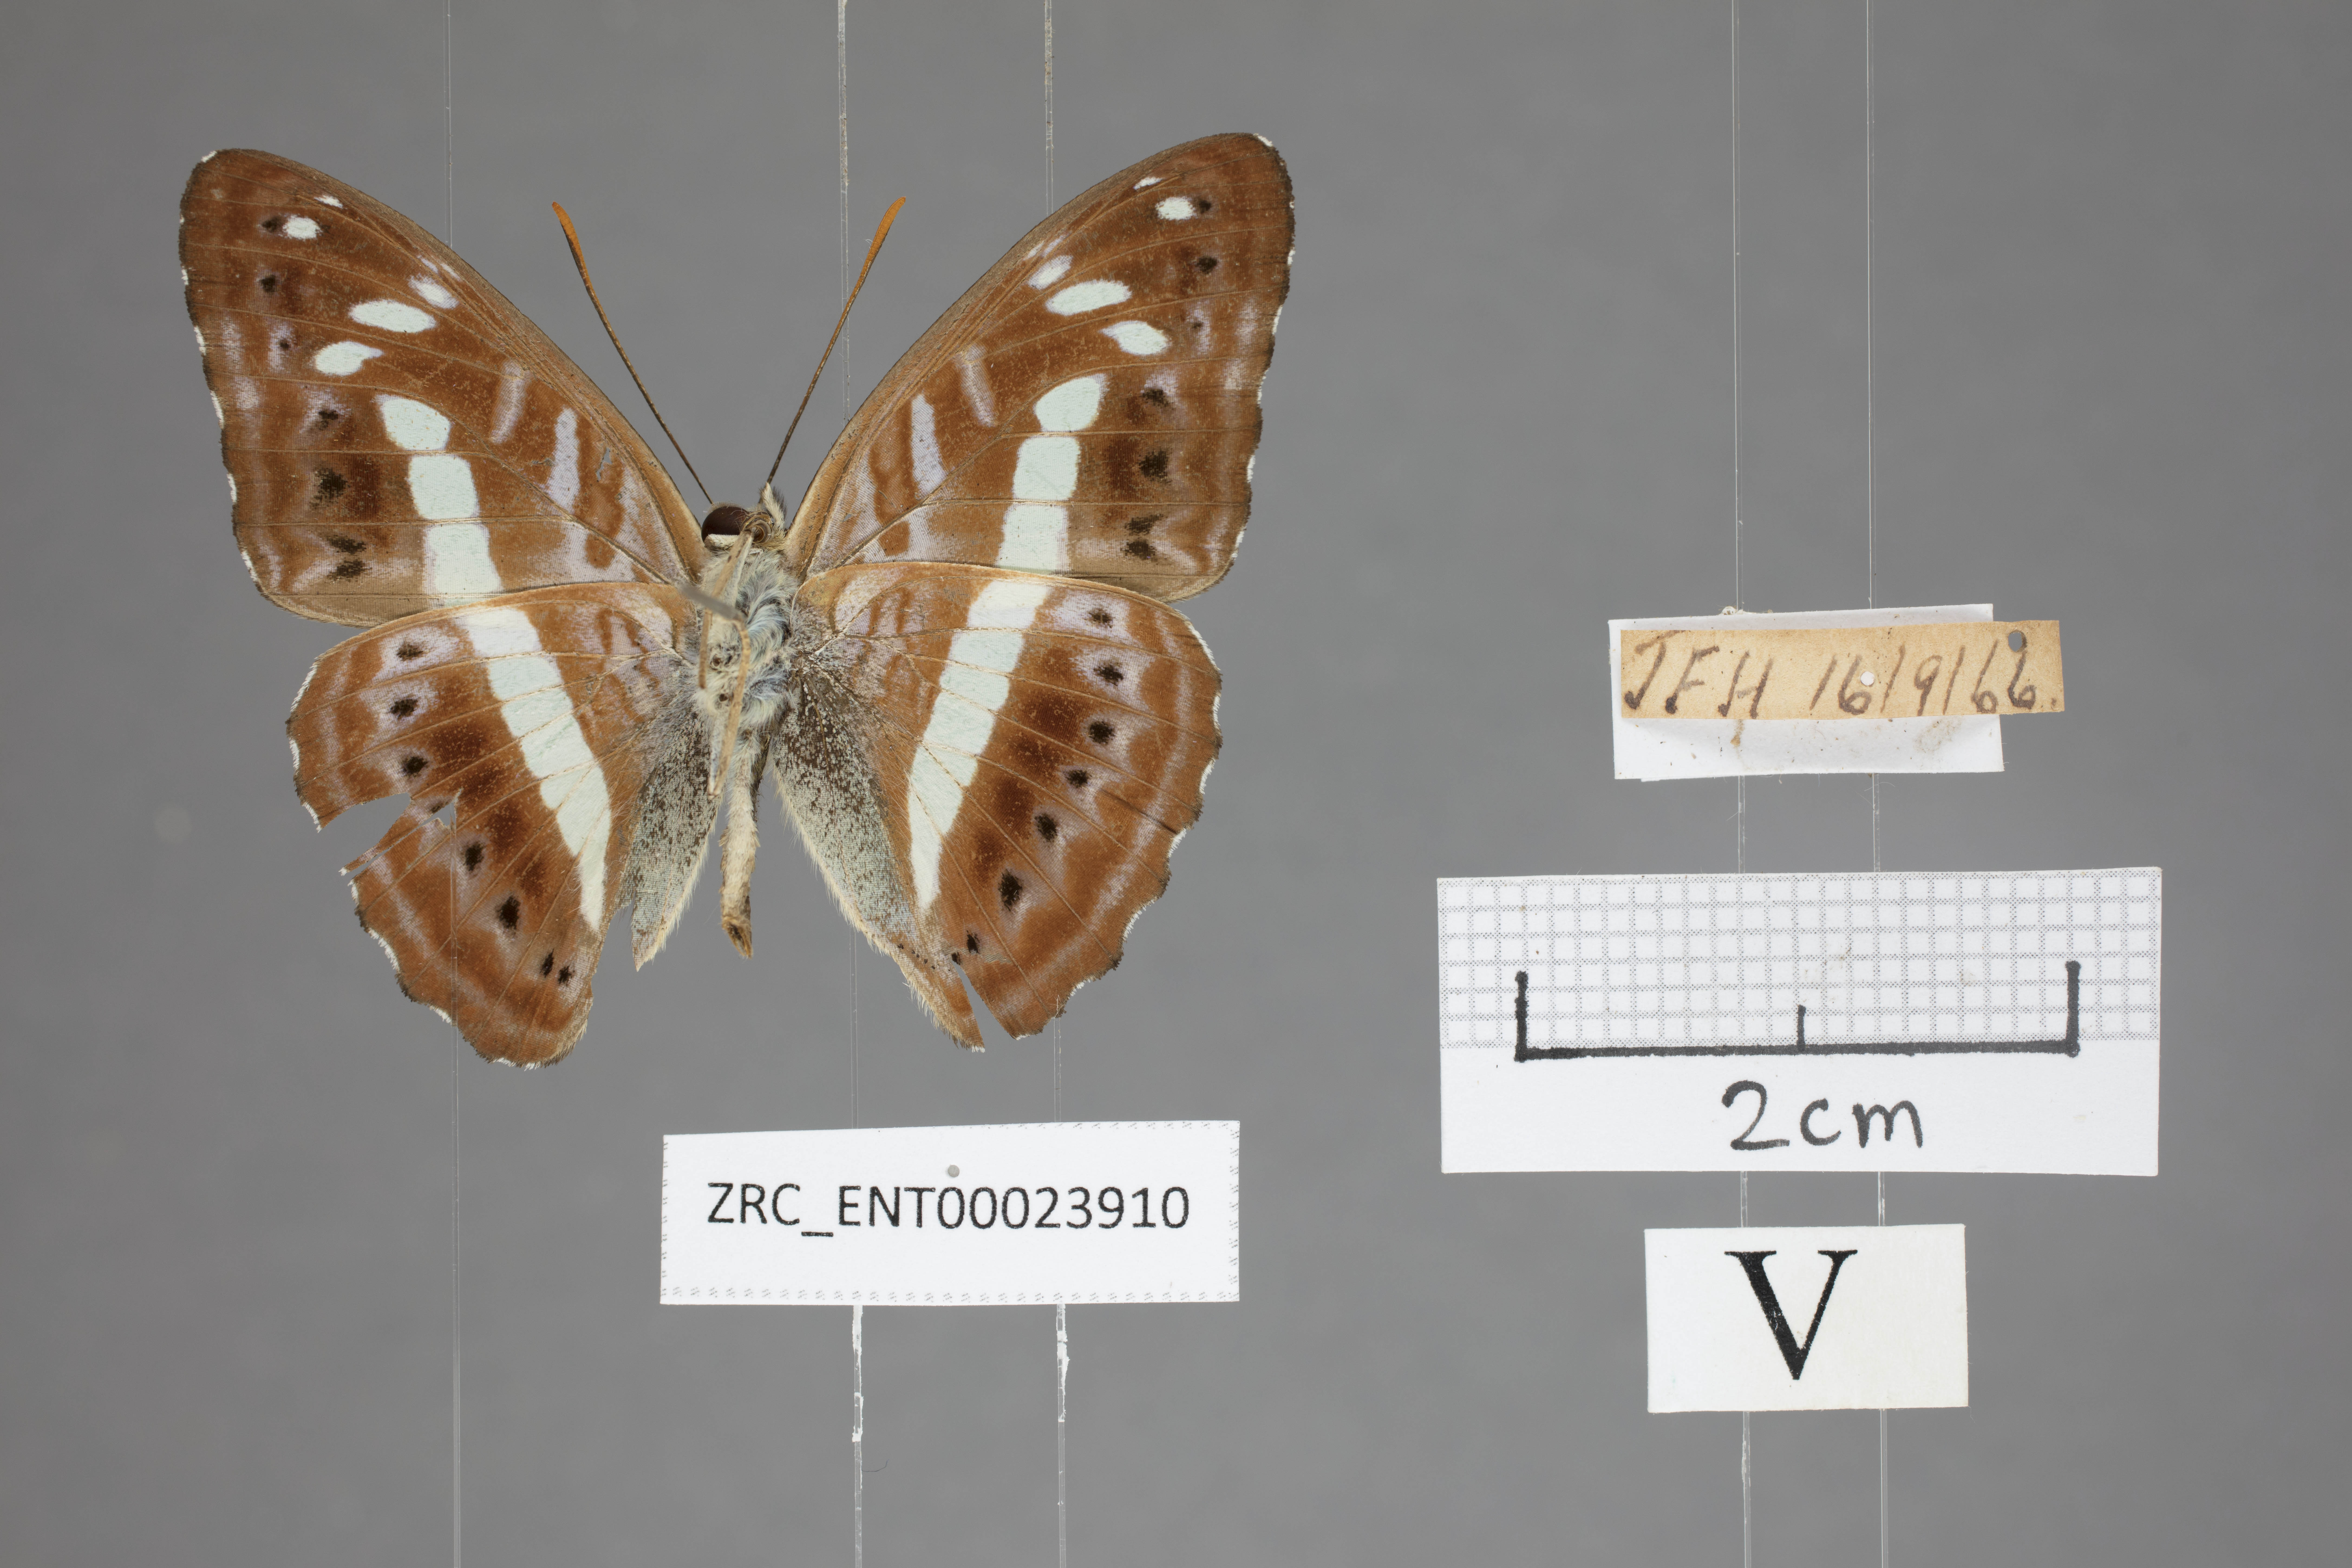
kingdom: Animalia
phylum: Arthropoda
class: Insecta
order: Lepidoptera
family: Nymphalidae
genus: Limenitis
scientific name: Limenitis
